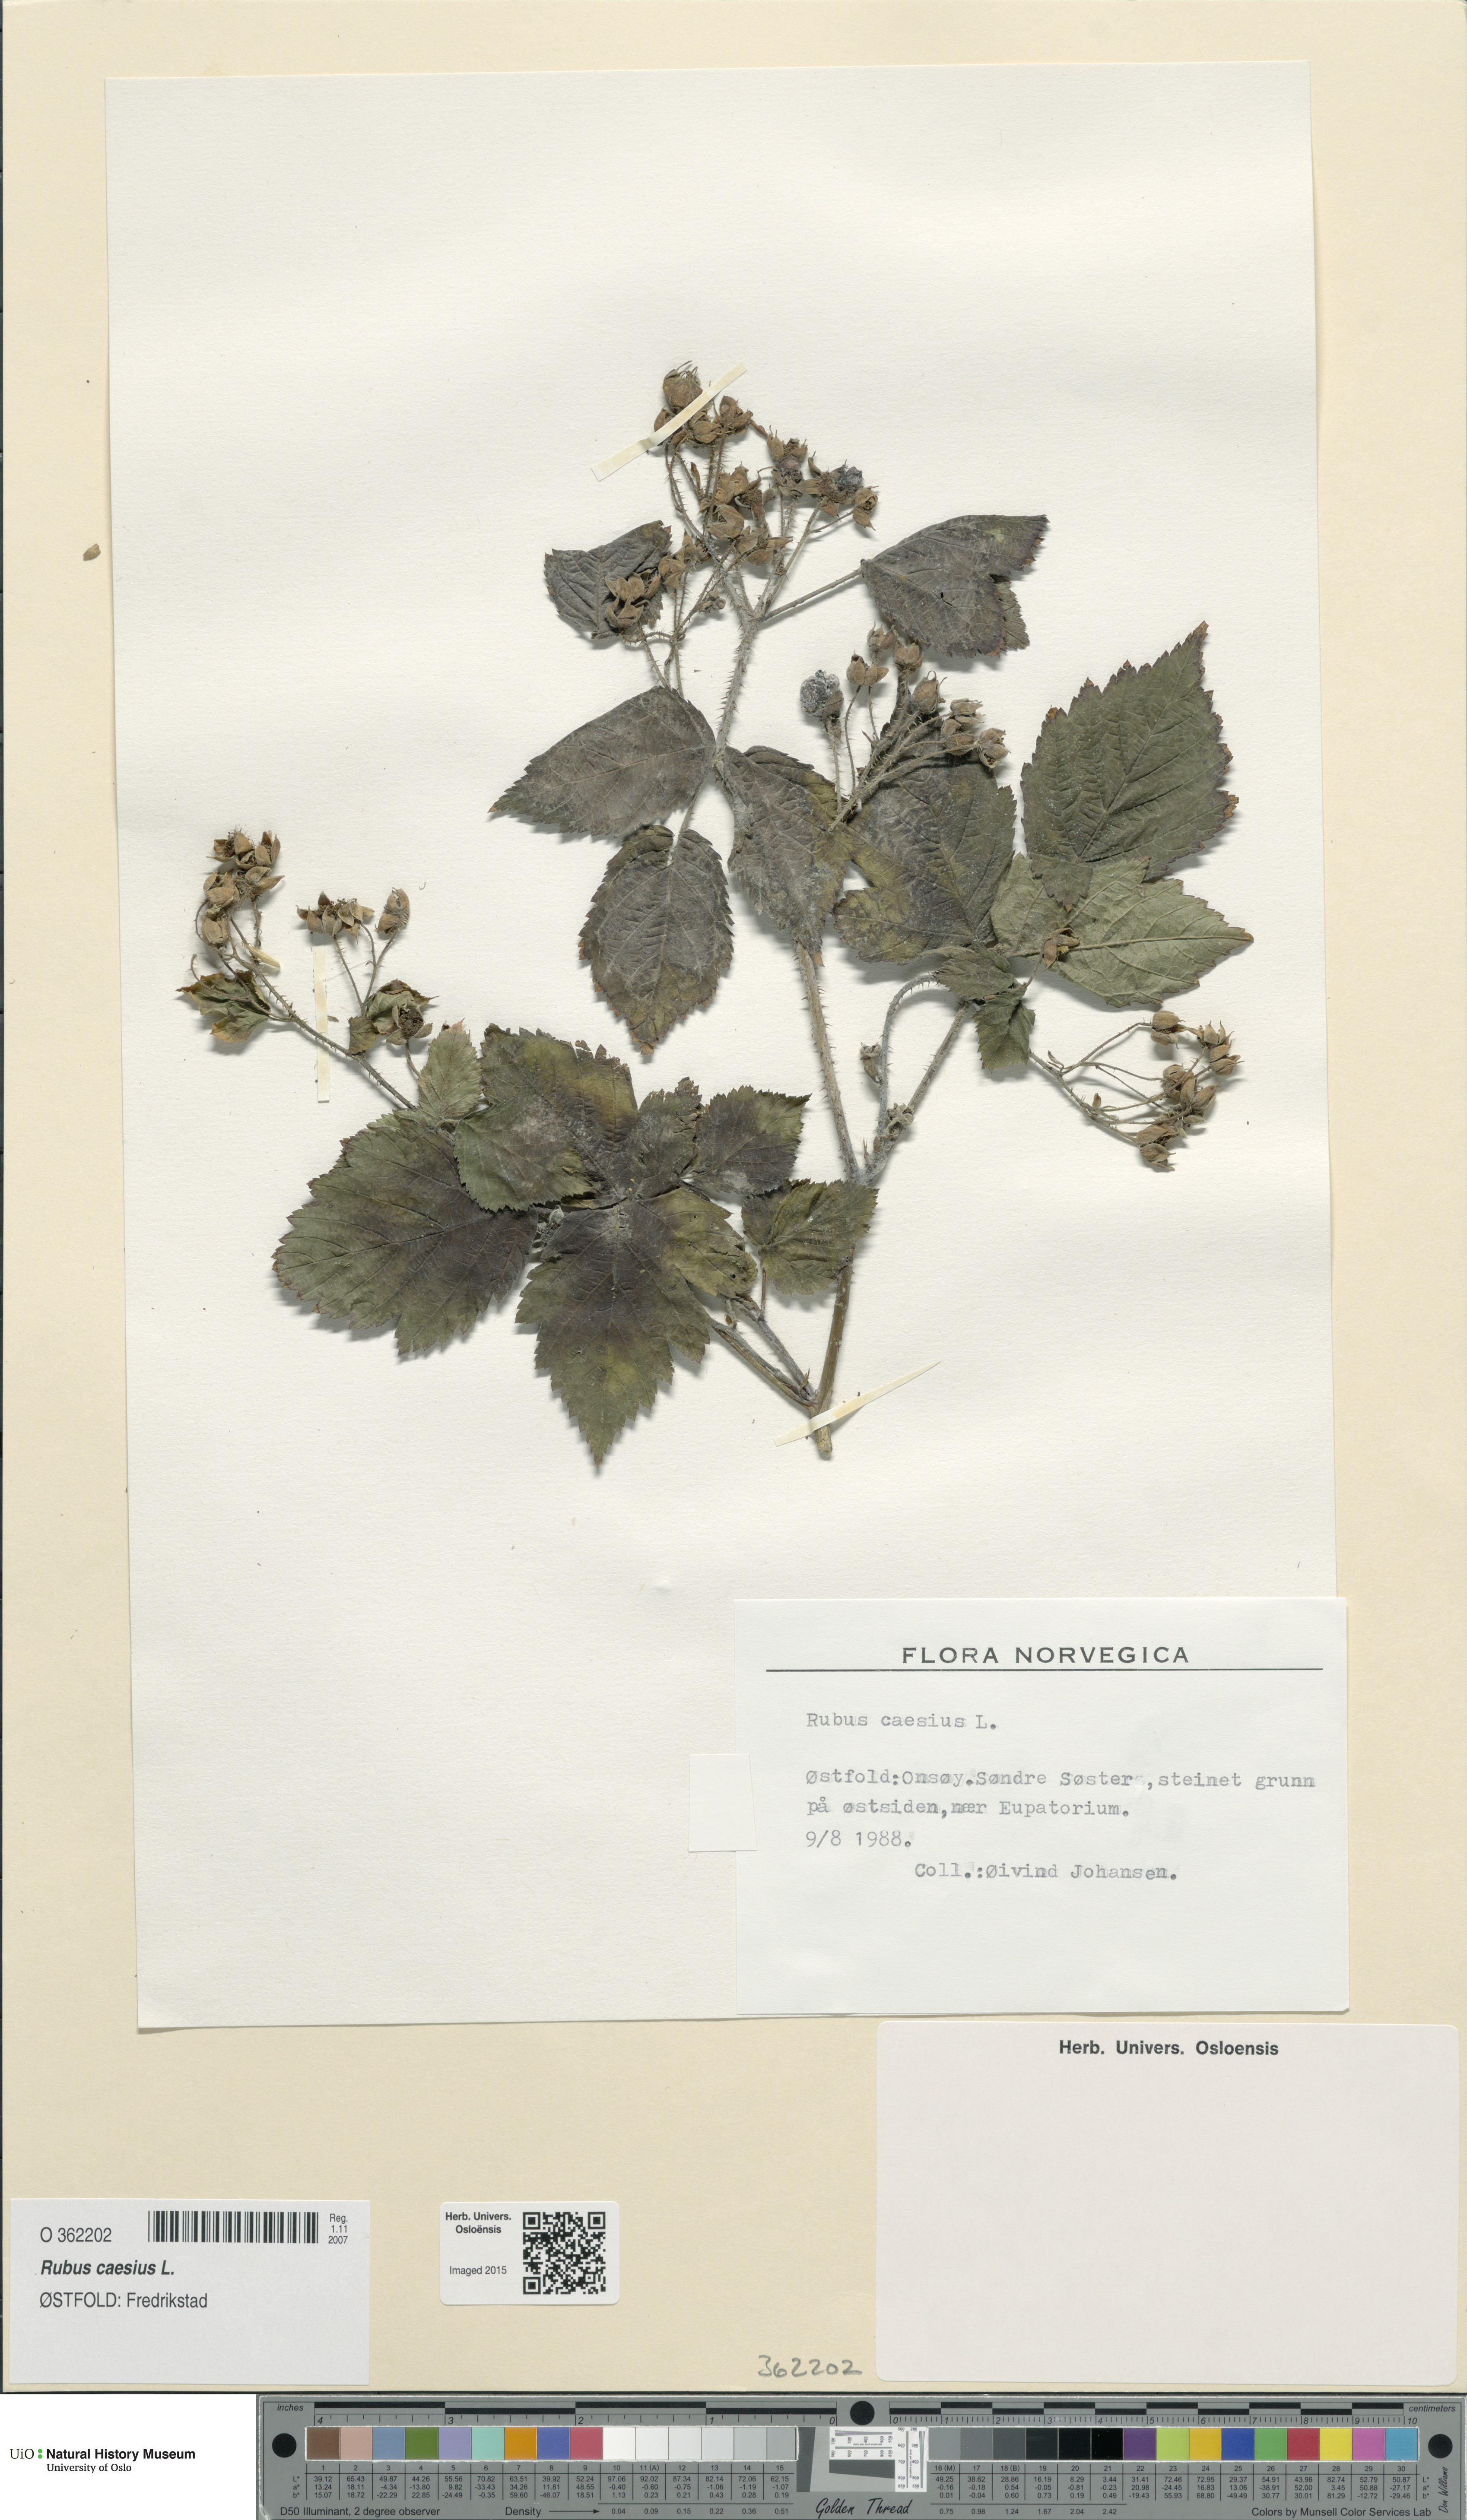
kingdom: Plantae
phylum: Tracheophyta
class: Magnoliopsida
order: Rosales
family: Rosaceae
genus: Rubus
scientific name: Rubus caesius
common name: Dewberry
